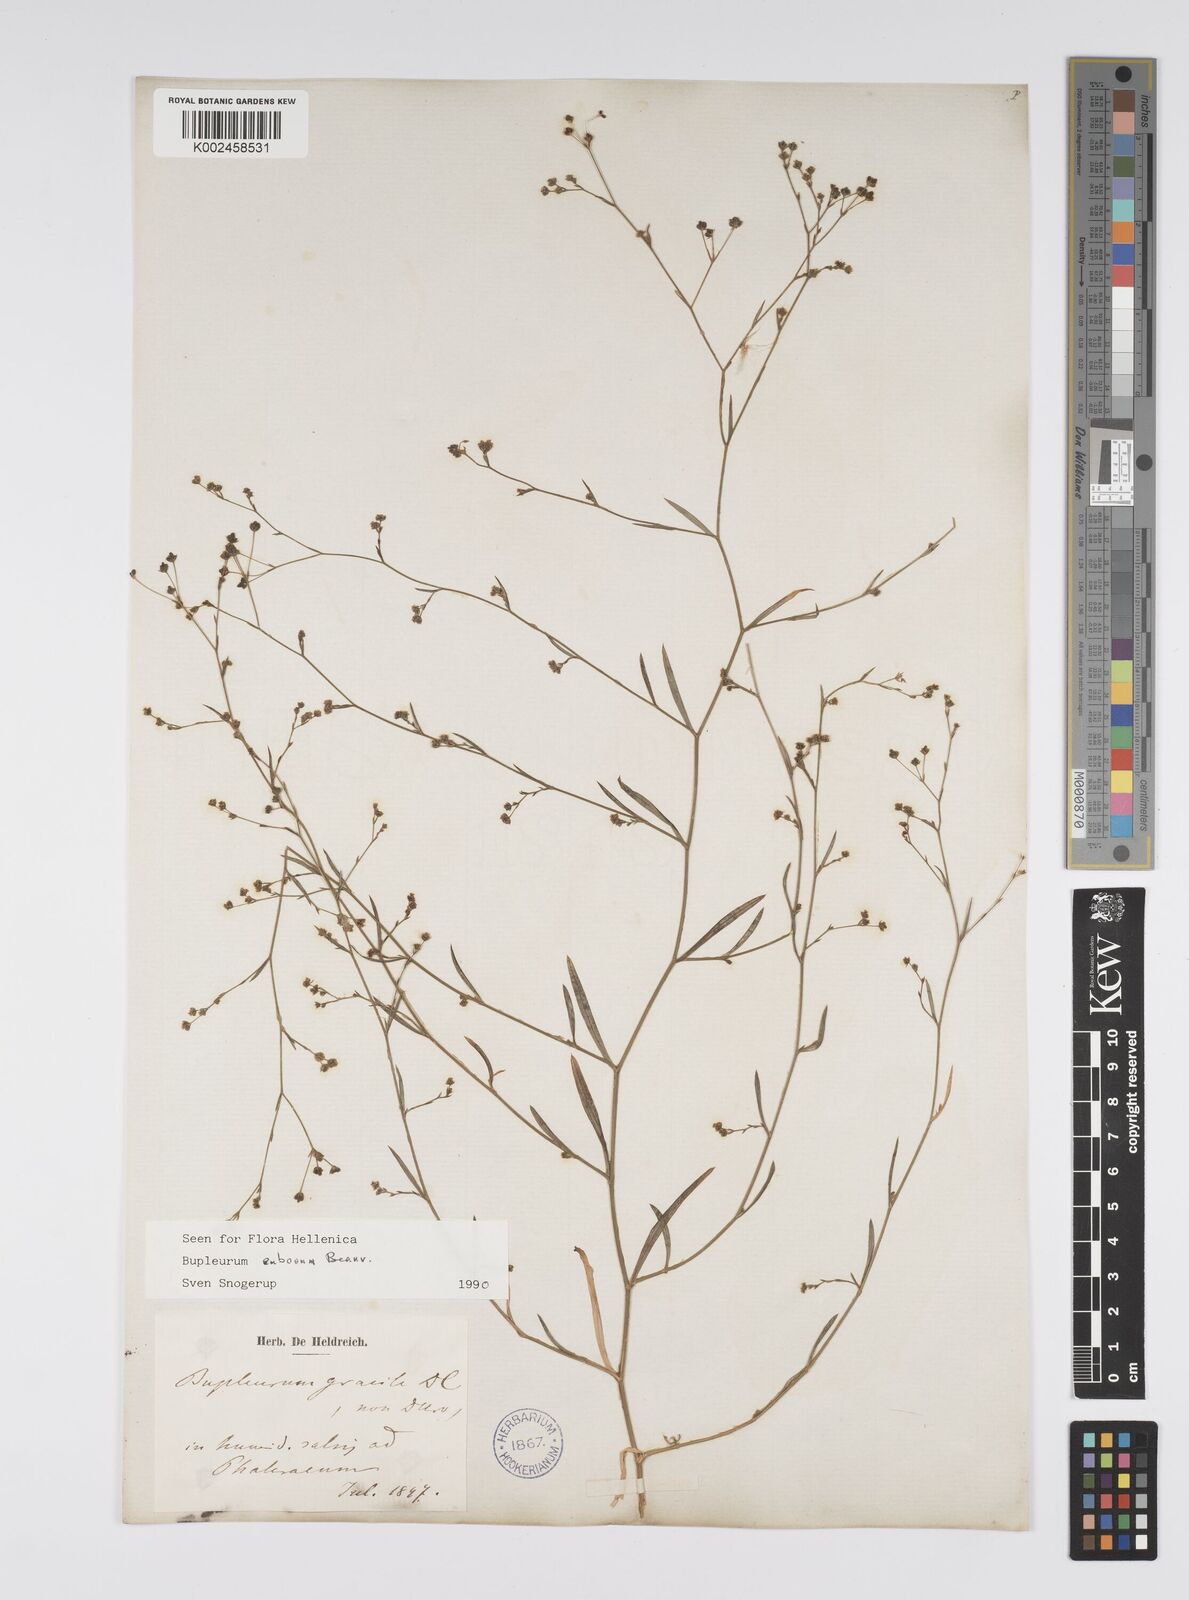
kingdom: Plantae
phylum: Tracheophyta
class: Magnoliopsida
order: Apiales
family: Apiaceae
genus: Bupleurum
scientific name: Bupleurum tenuissimum
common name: Slender hare's-ear
